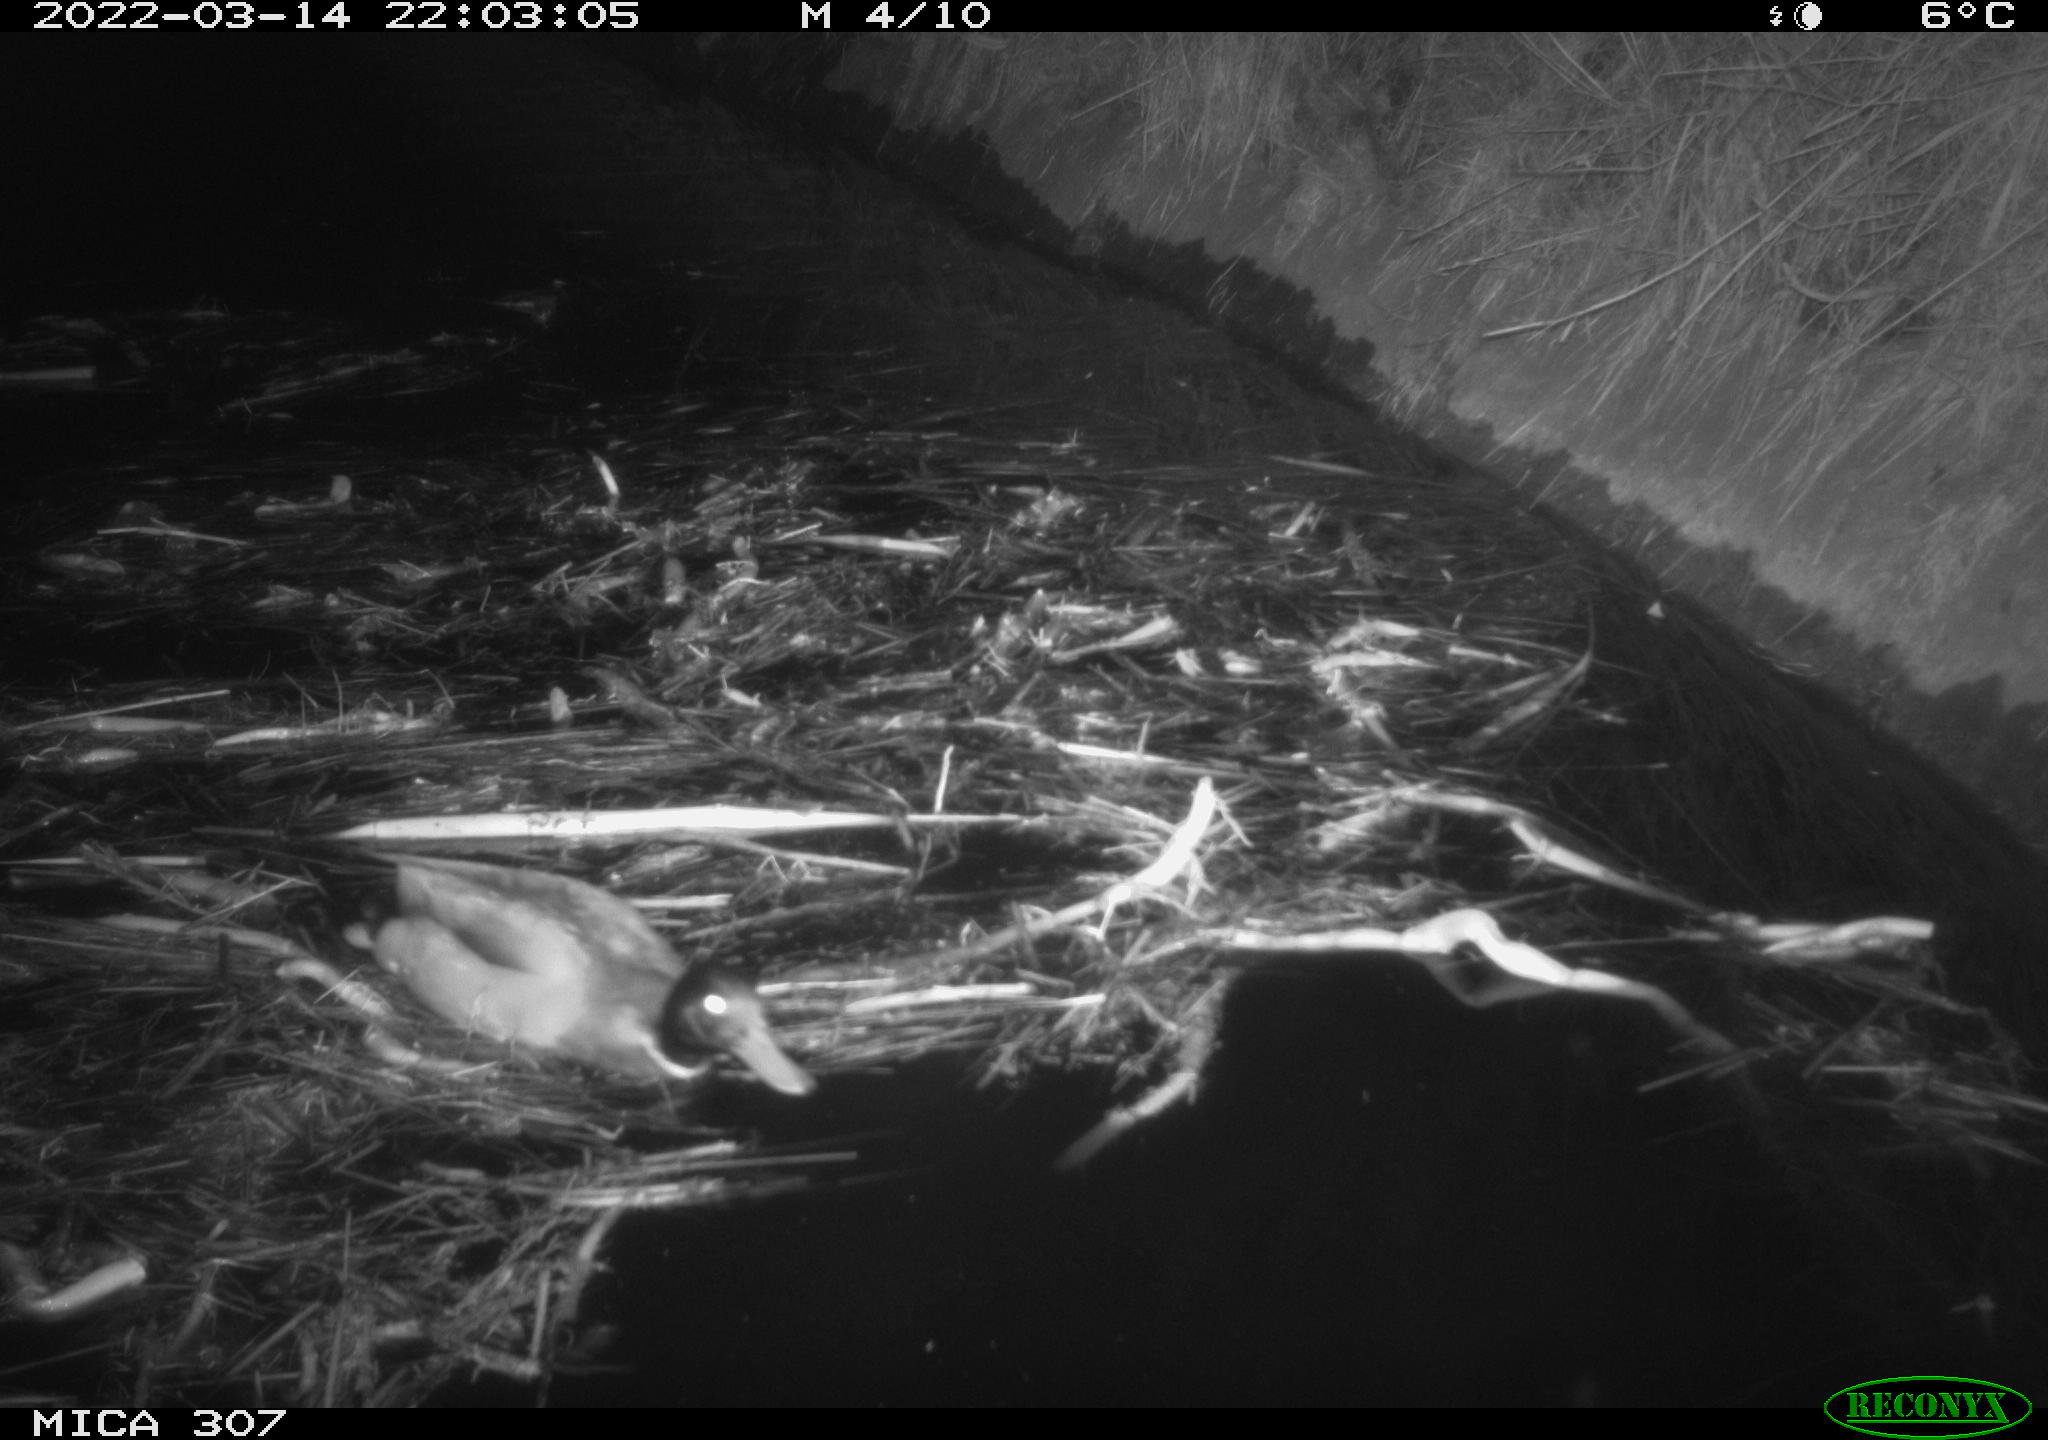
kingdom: Animalia
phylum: Chordata
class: Aves
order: Anseriformes
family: Anatidae
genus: Anas
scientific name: Anas platyrhynchos
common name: Mallard
